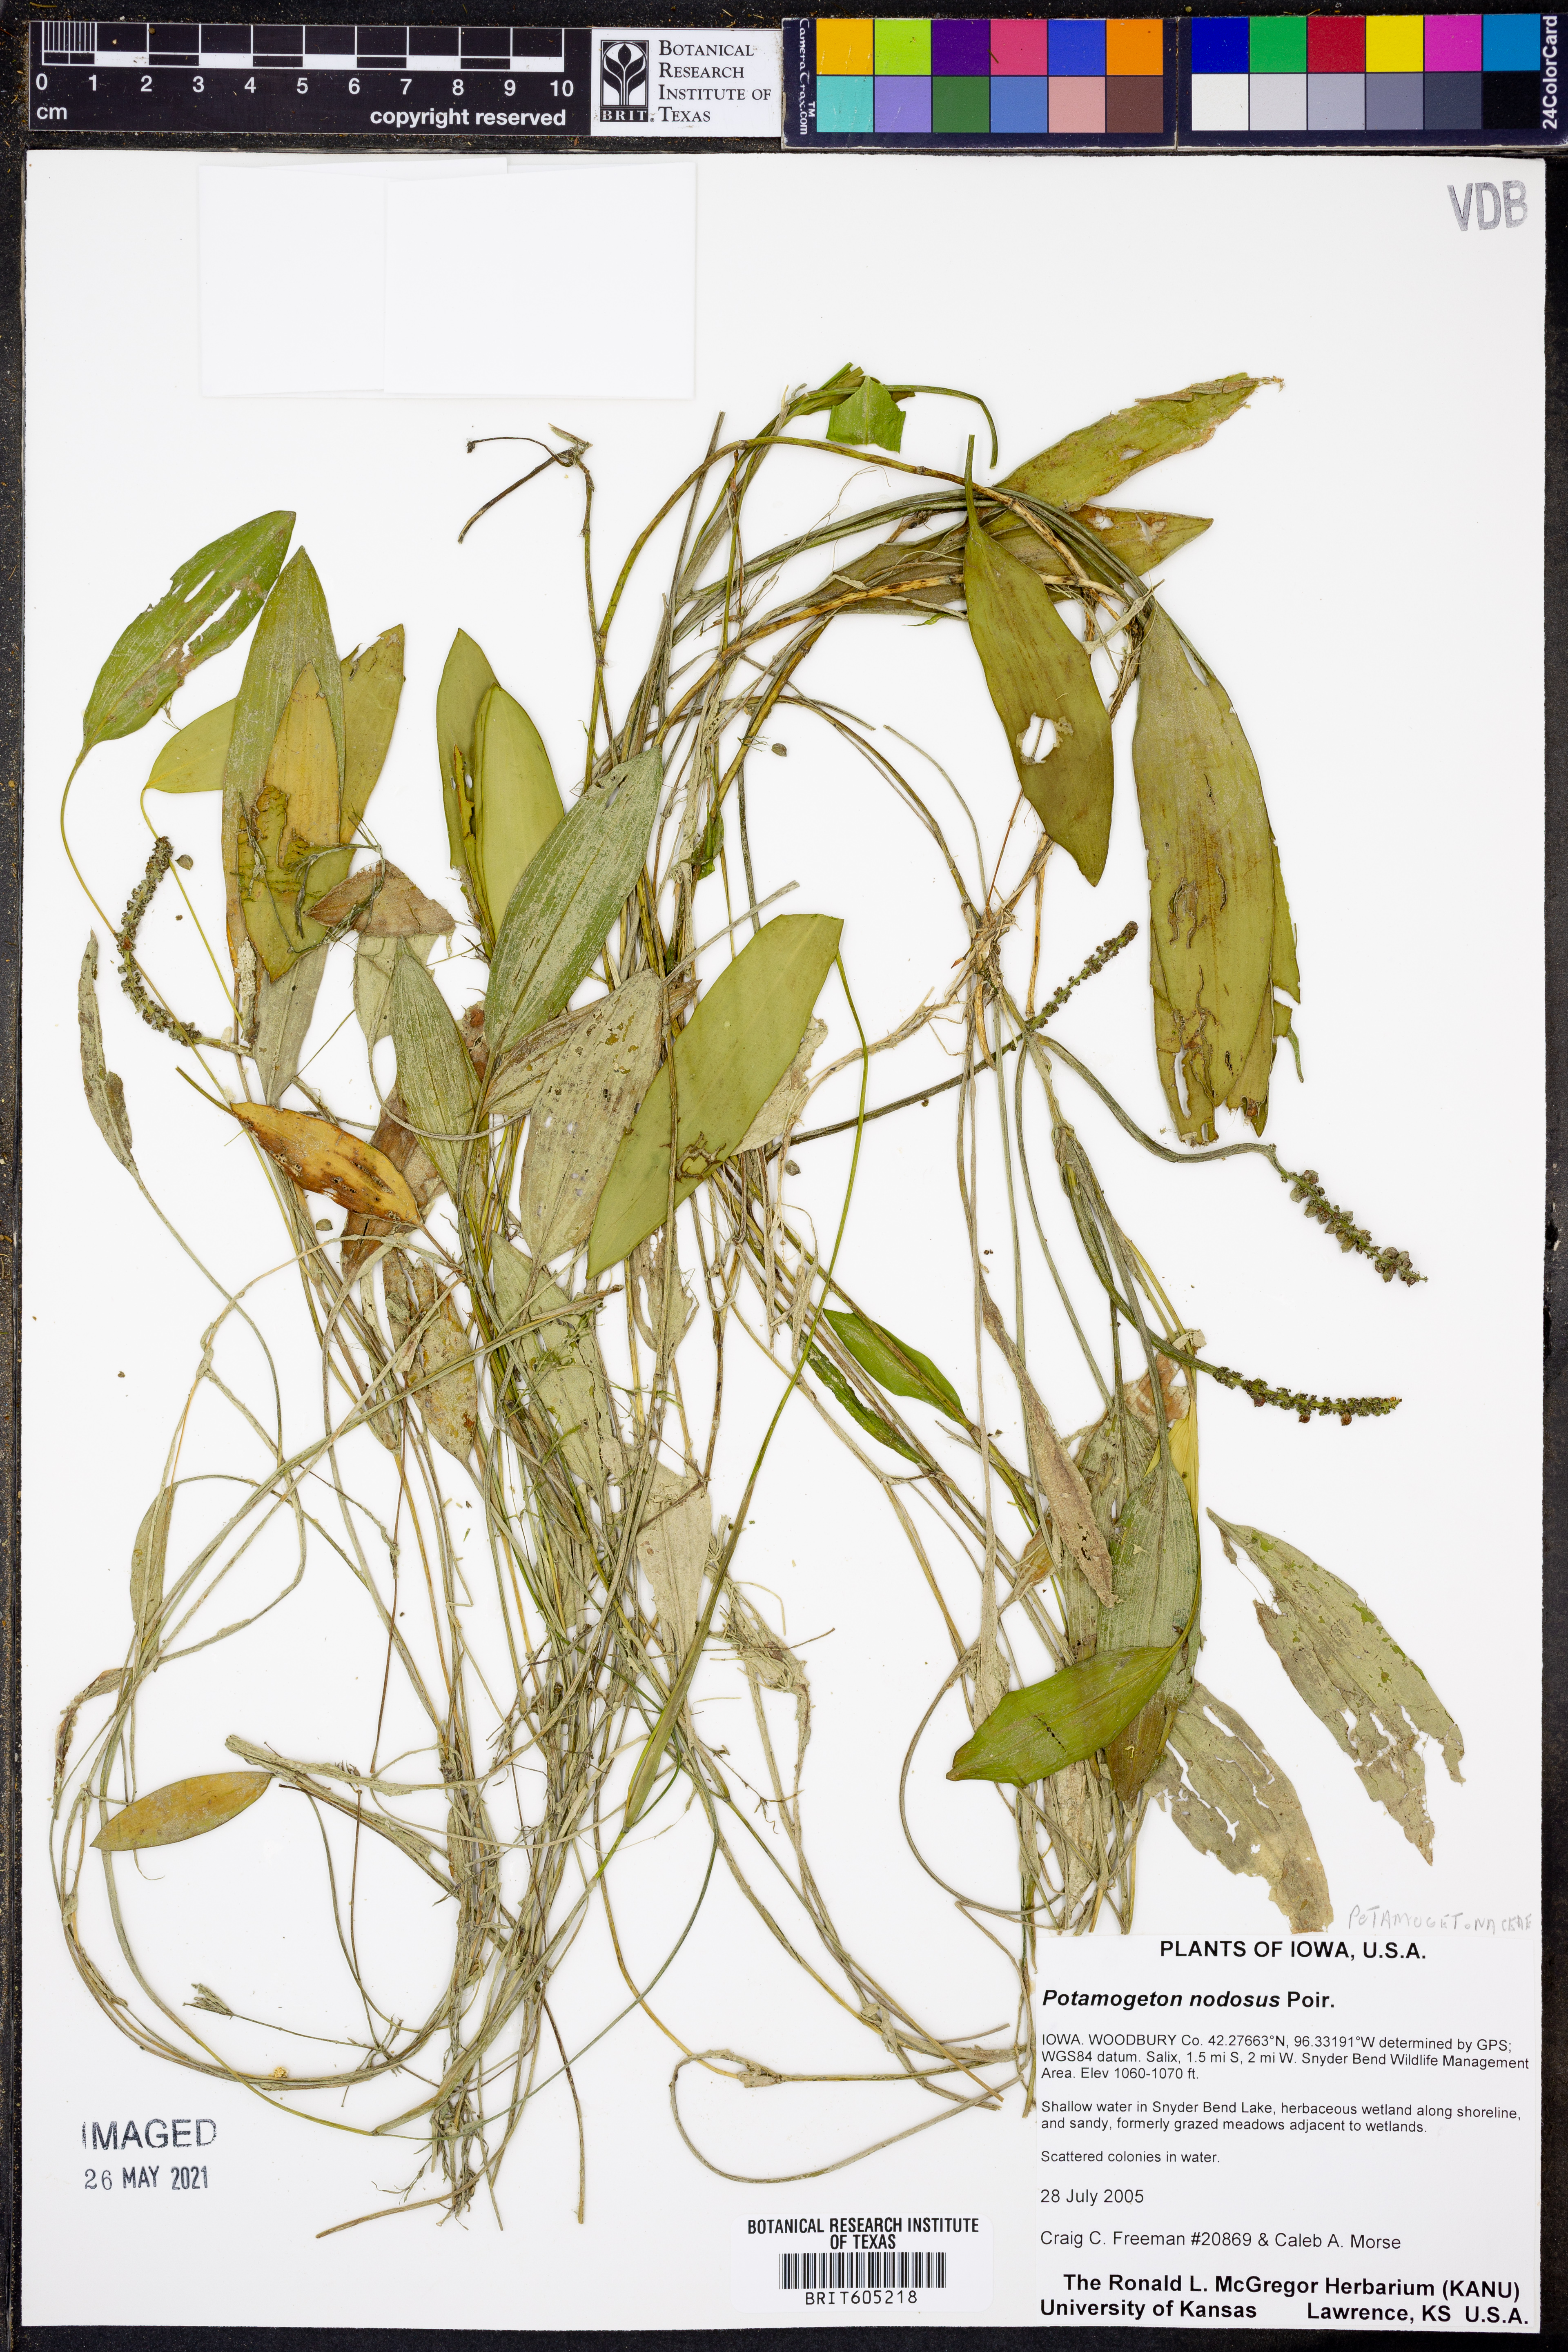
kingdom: Plantae
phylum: Tracheophyta
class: Liliopsida
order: Alismatales
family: Potamogetonaceae
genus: Potamogeton
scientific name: Potamogeton nodosus
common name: Loddon pondweed
